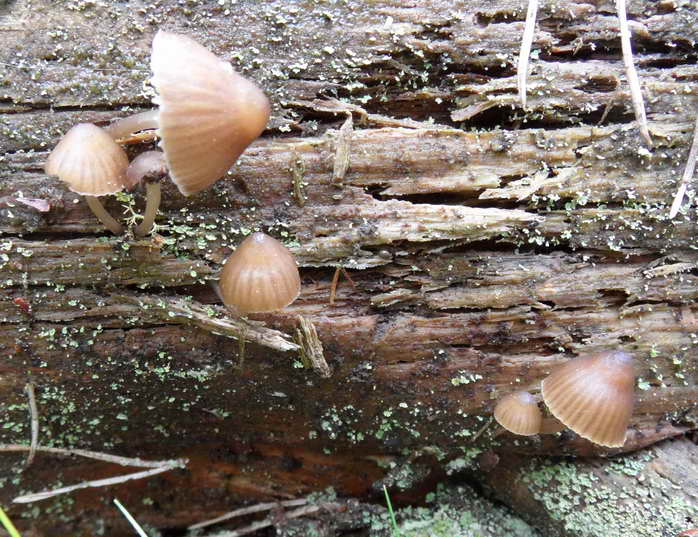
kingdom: Fungi
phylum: Basidiomycota
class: Agaricomycetes
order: Agaricales
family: Mycenaceae
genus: Mycena
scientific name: Mycena stipata
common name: stinkende huesvamp
